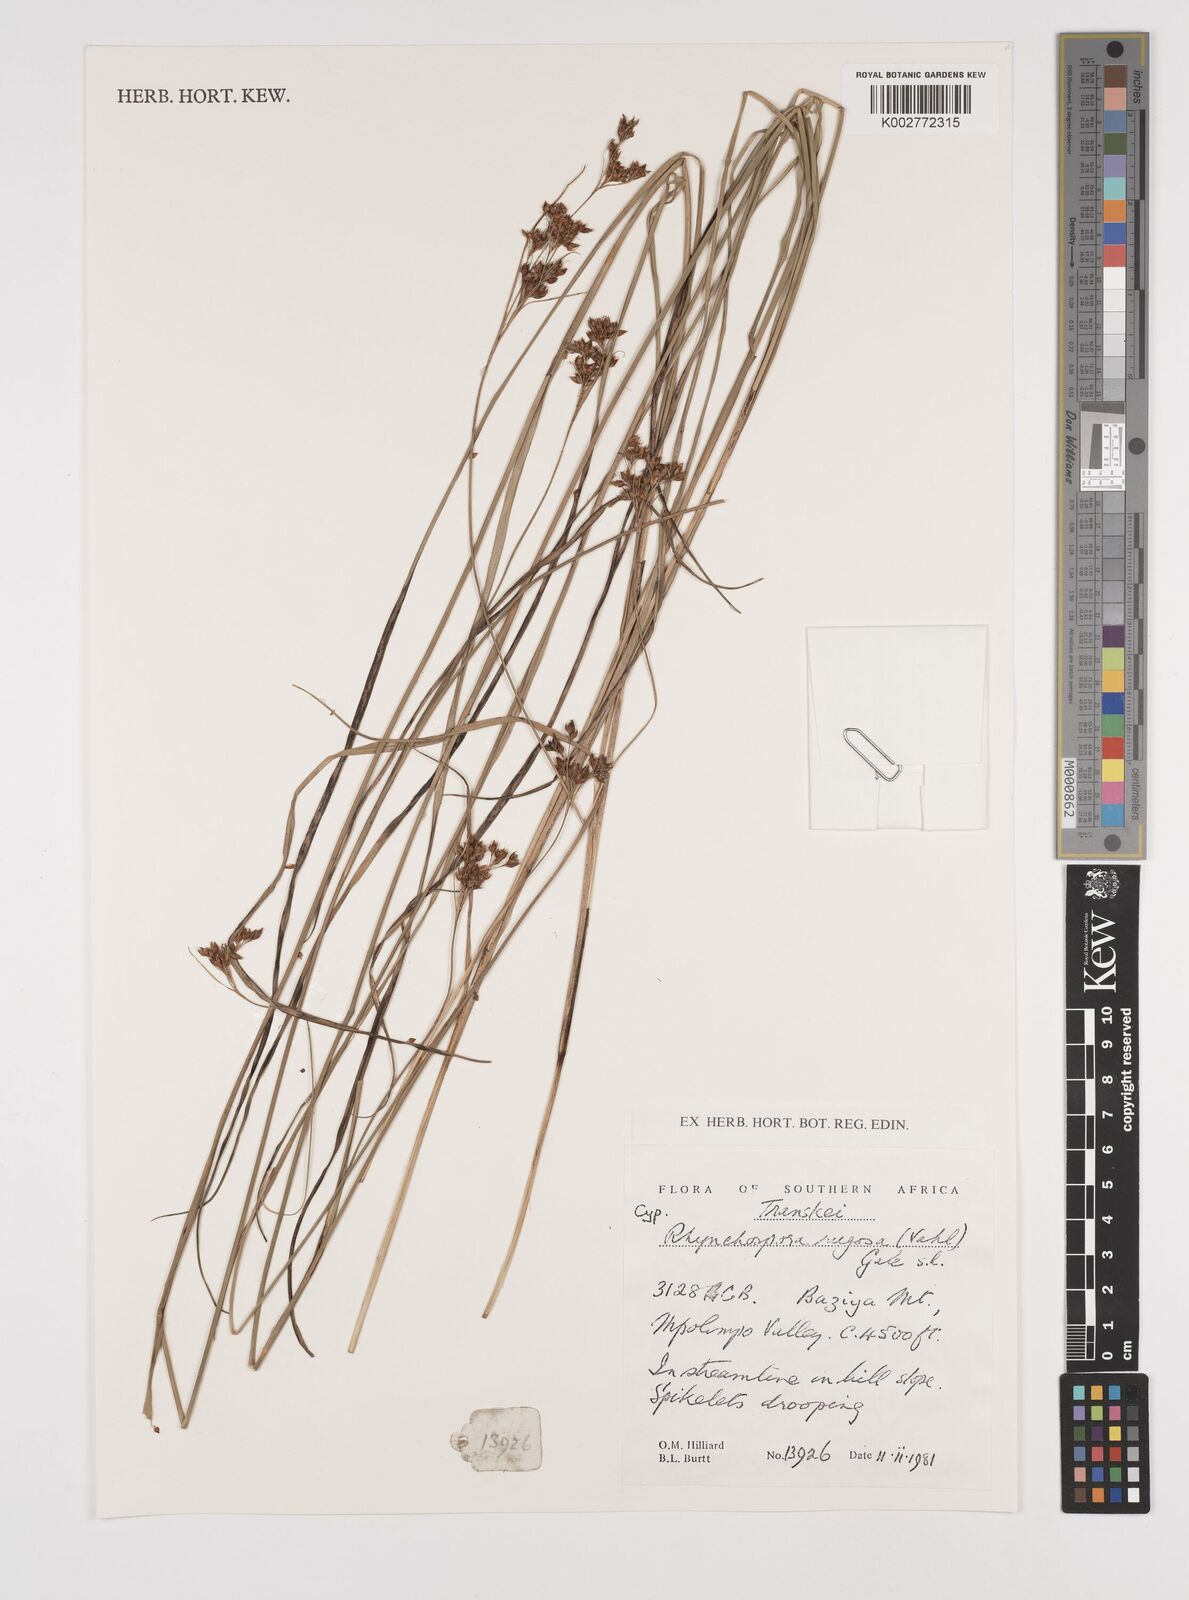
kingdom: Plantae
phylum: Tracheophyta
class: Liliopsida
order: Poales
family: Cyperaceae
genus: Rhynchospora
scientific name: Rhynchospora rugosa
